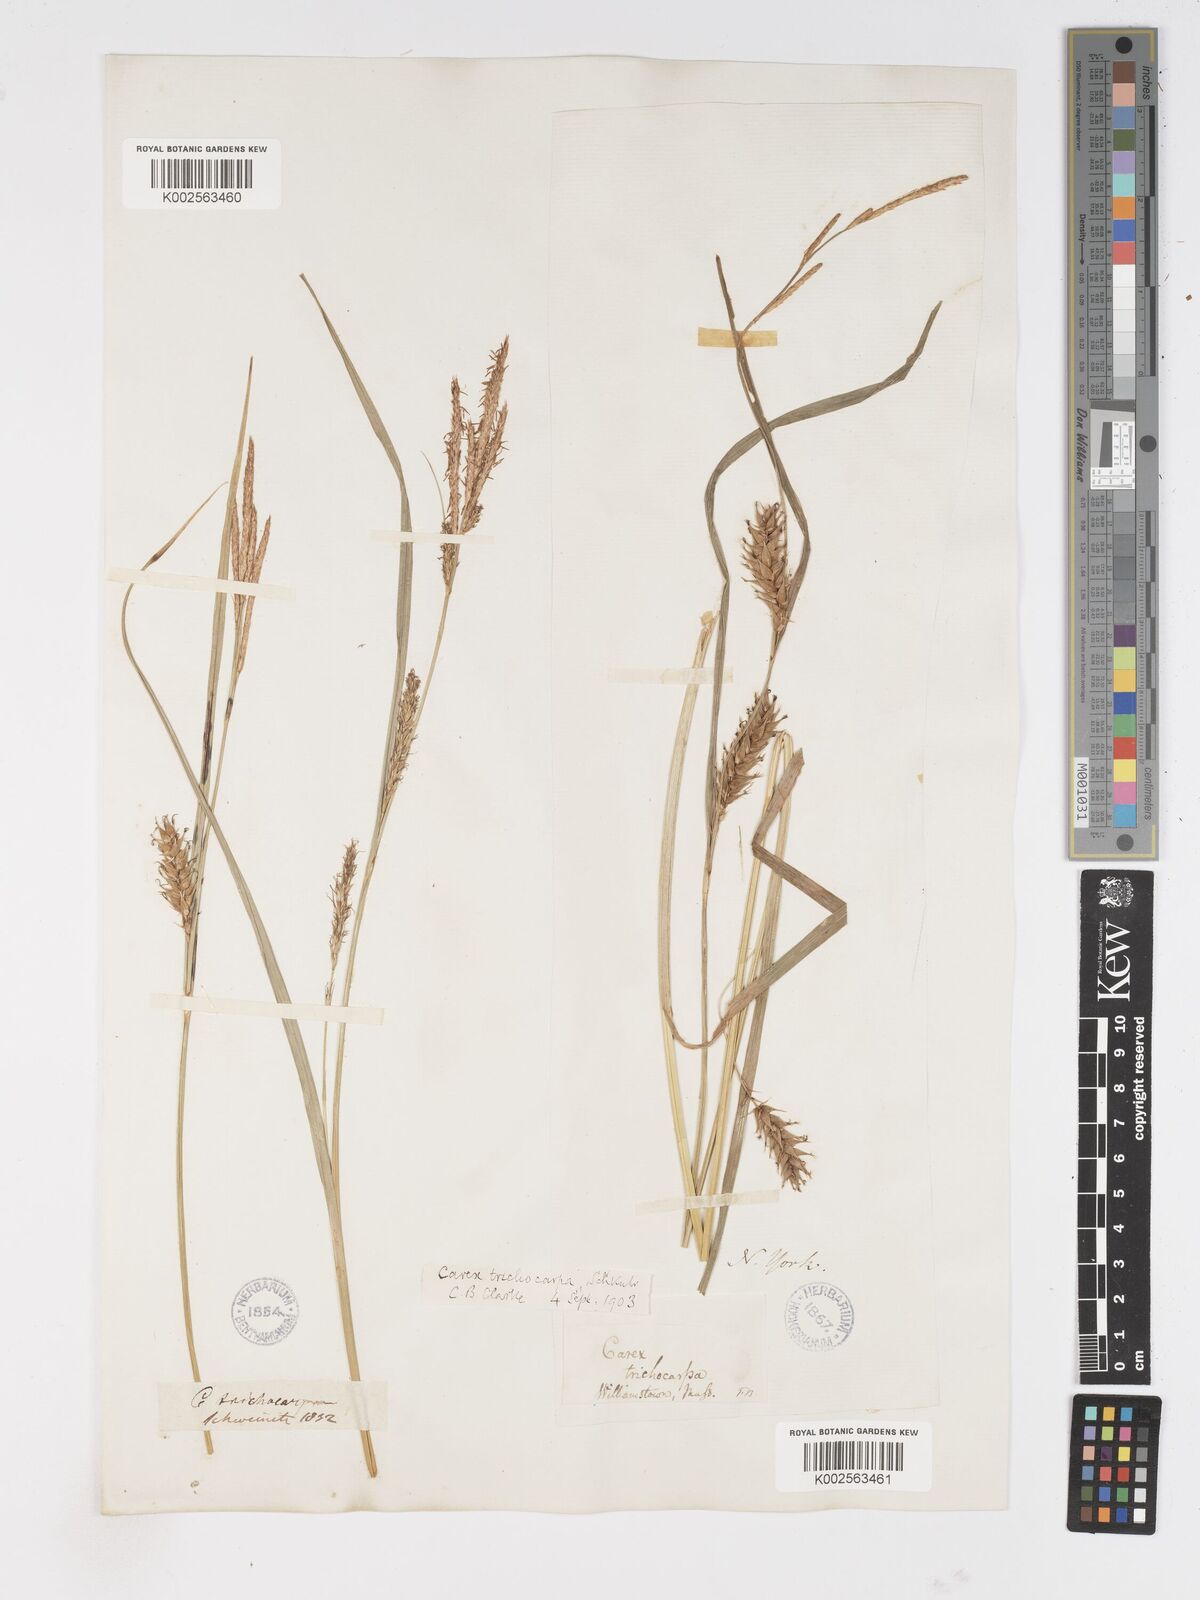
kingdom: Plantae
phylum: Tracheophyta
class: Liliopsida
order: Poales
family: Cyperaceae
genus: Carex
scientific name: Carex trichocarpa
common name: Hairy-fruited lake sedge
